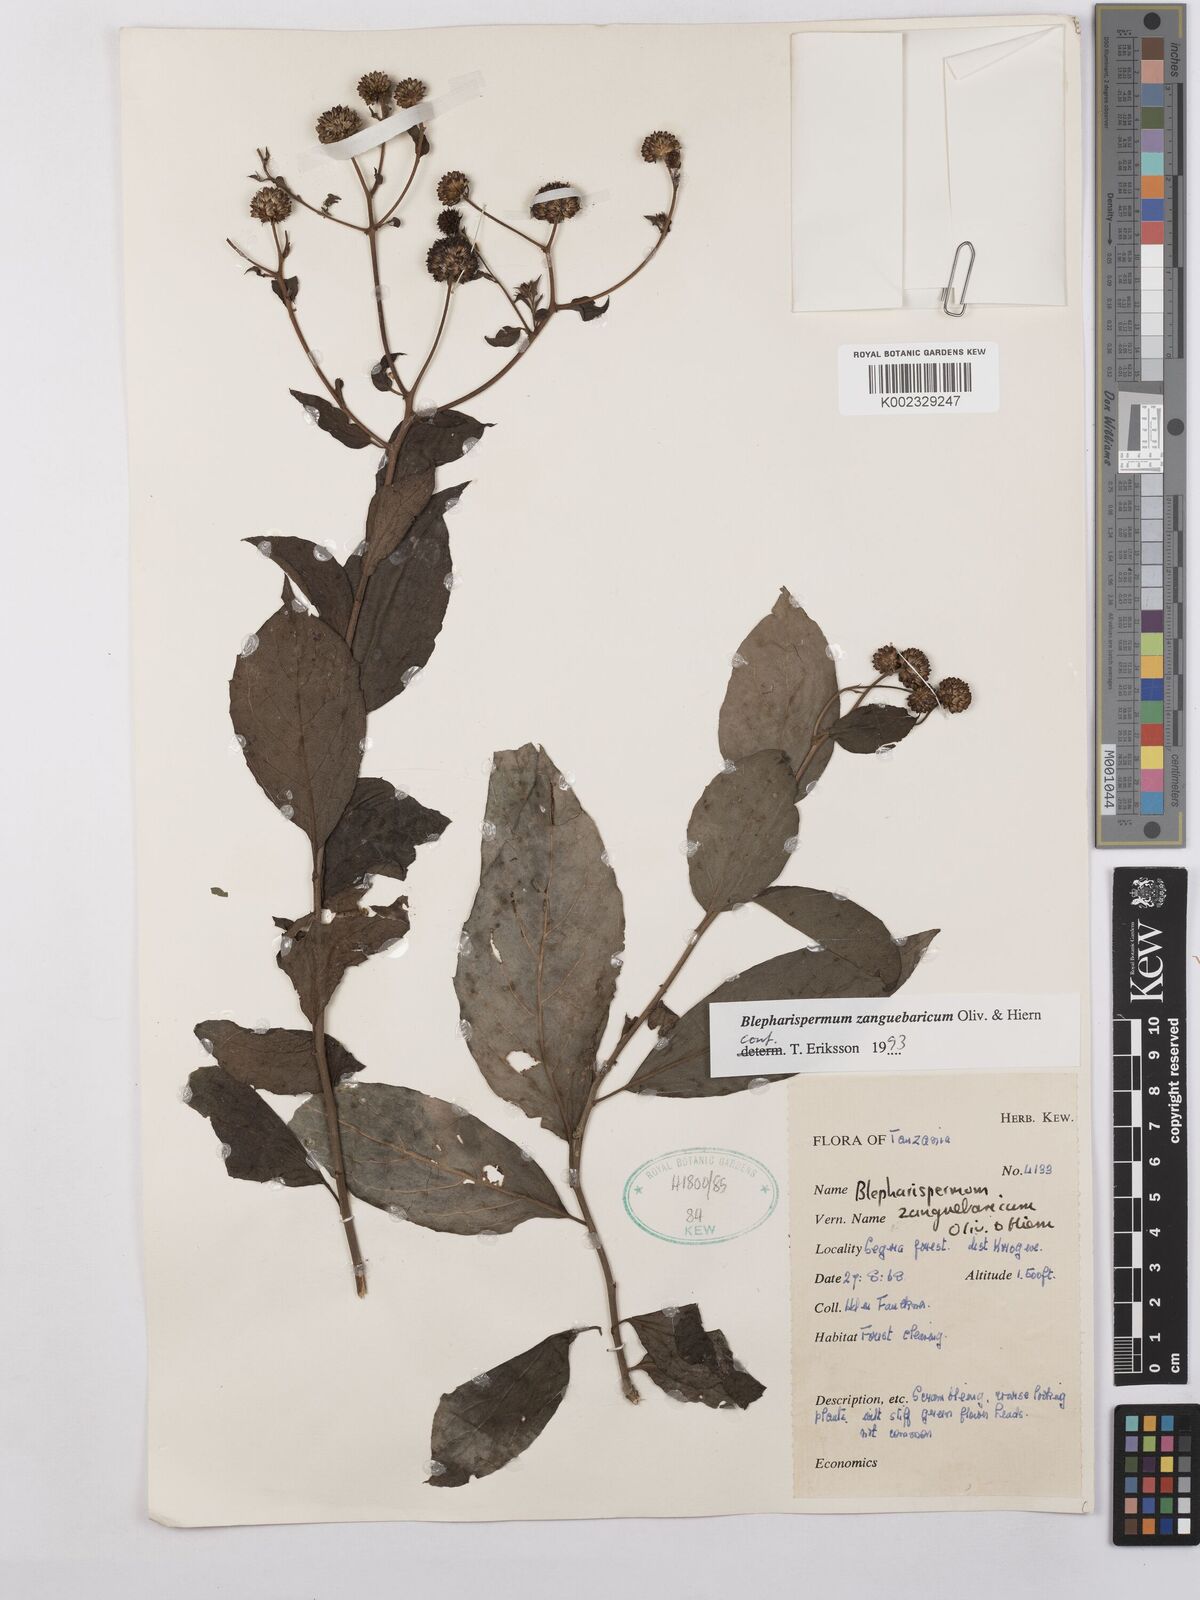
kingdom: Plantae
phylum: Tracheophyta
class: Magnoliopsida
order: Asterales
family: Asteraceae
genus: Blepharispermum
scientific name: Blepharispermum zanguebaricum
